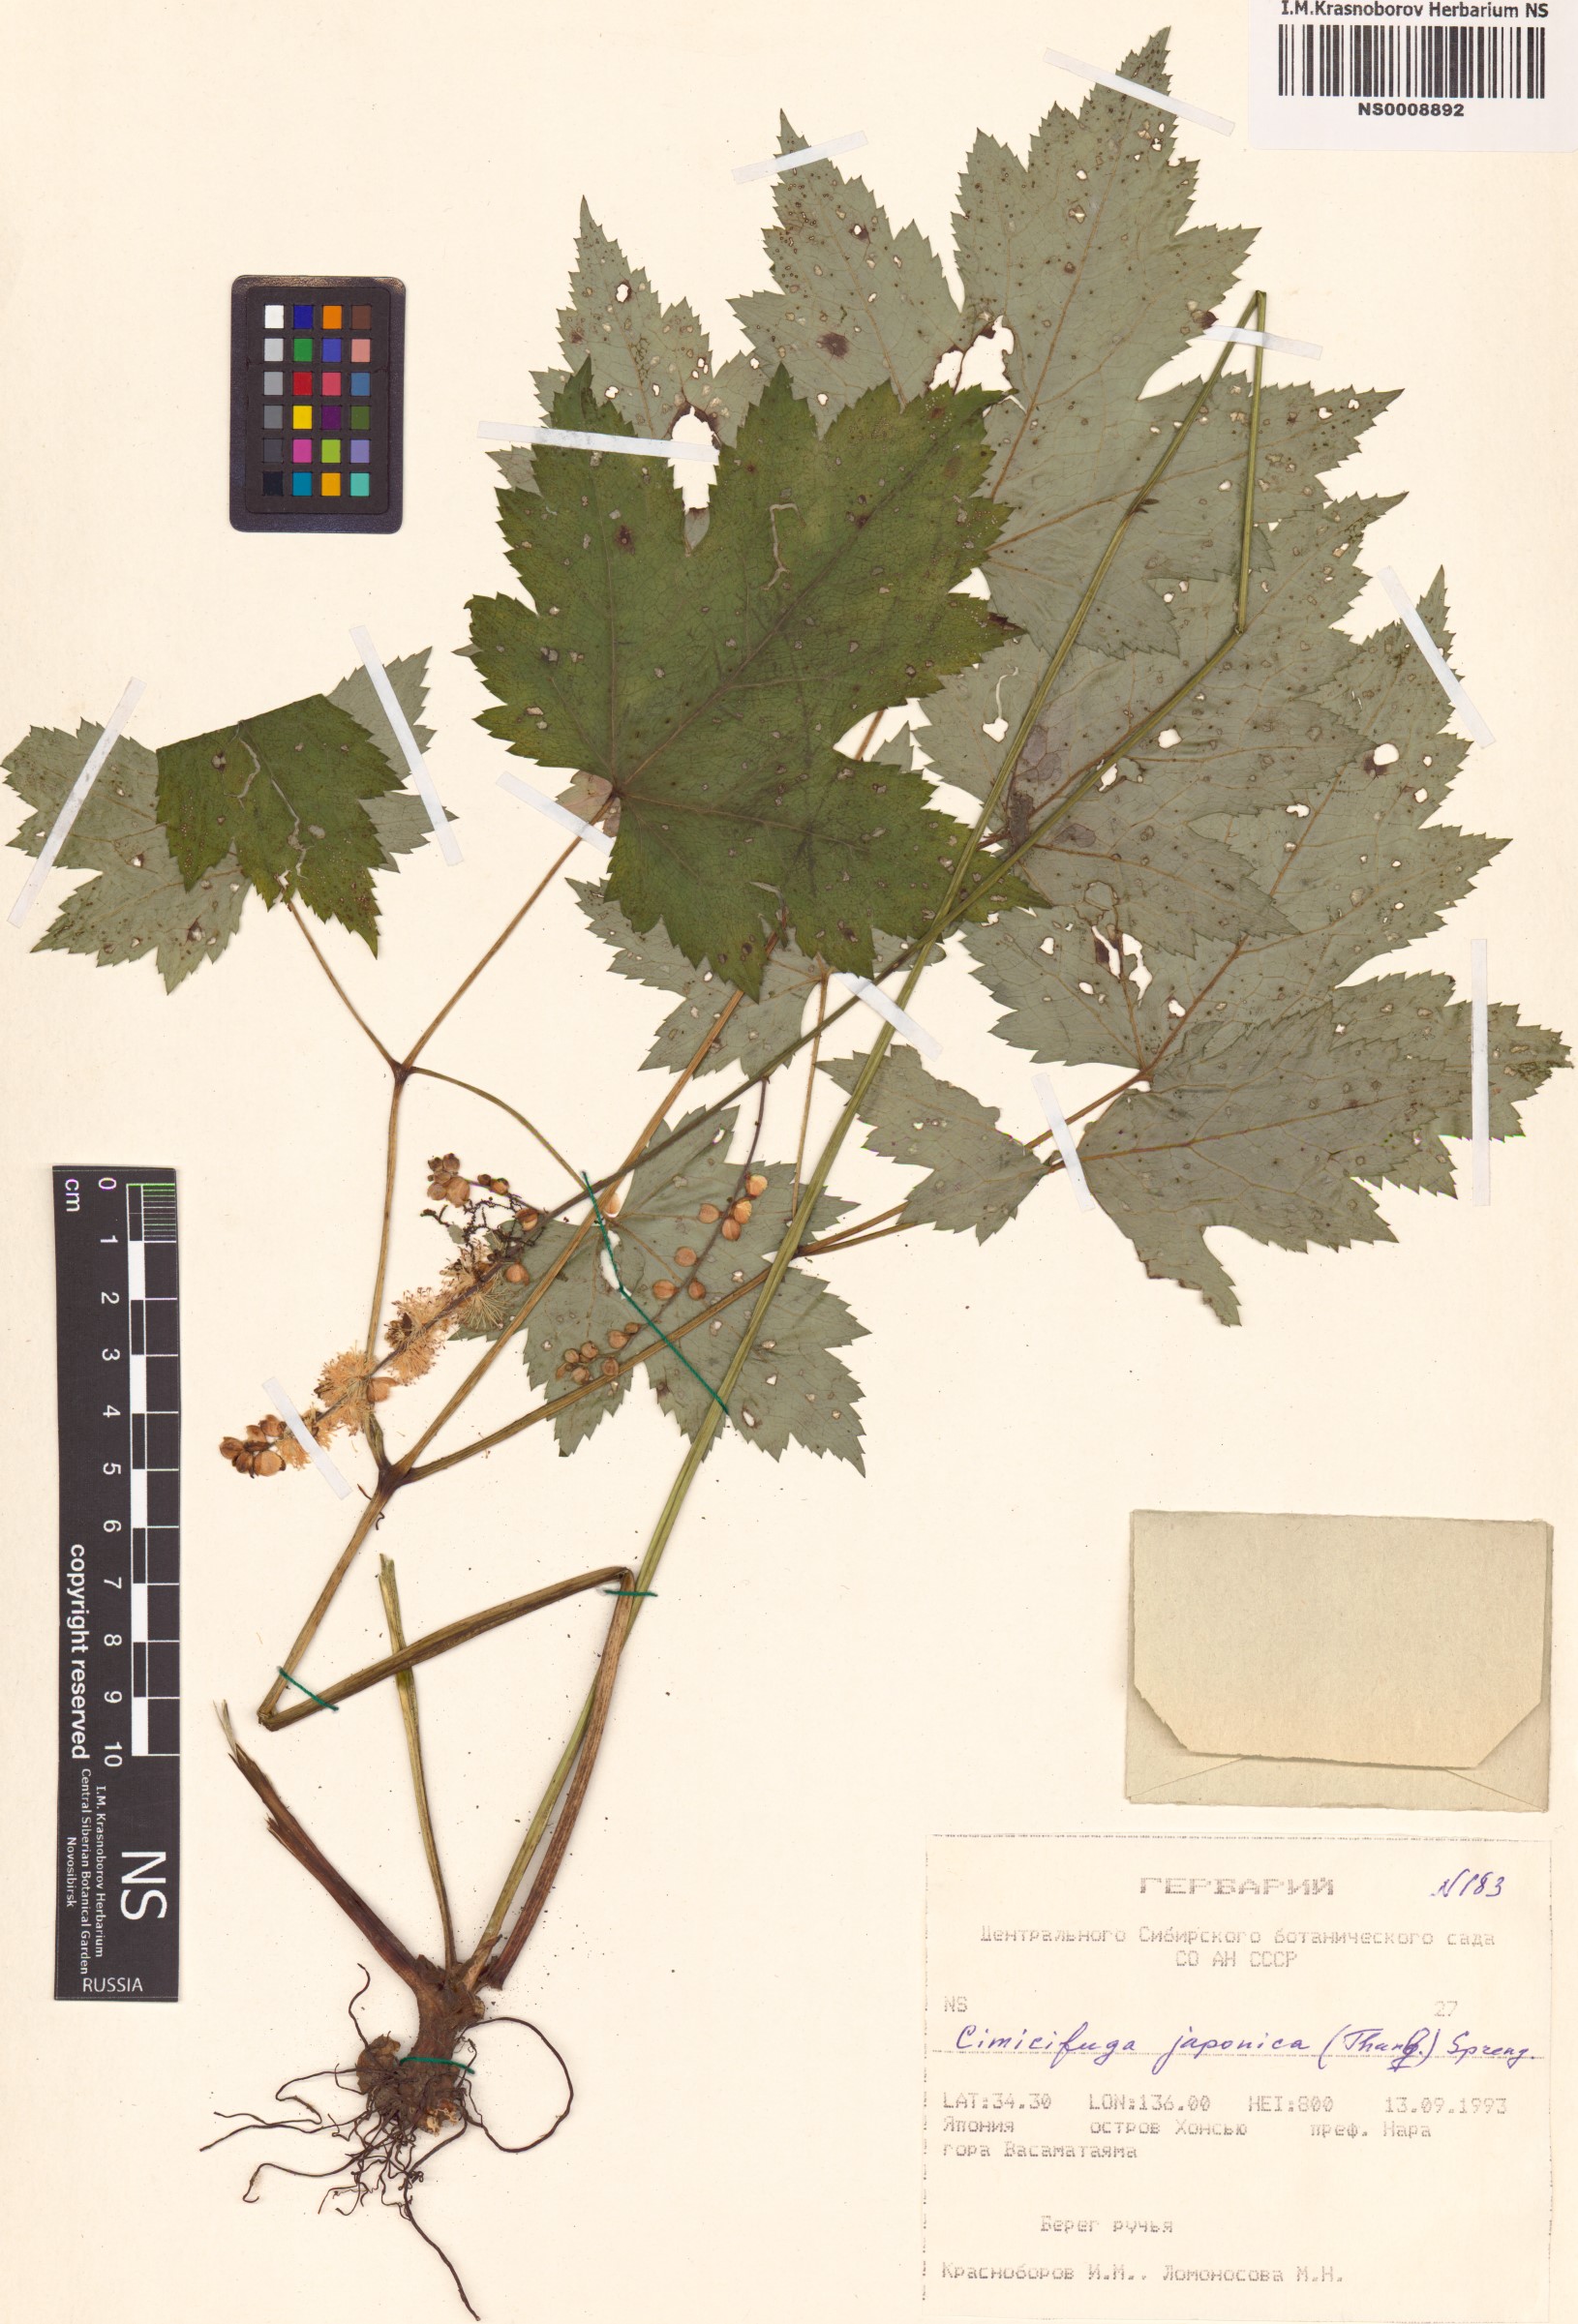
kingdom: Plantae
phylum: Tracheophyta
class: Magnoliopsida
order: Ranunculales
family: Ranunculaceae
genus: Actaea
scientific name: Actaea japonica
